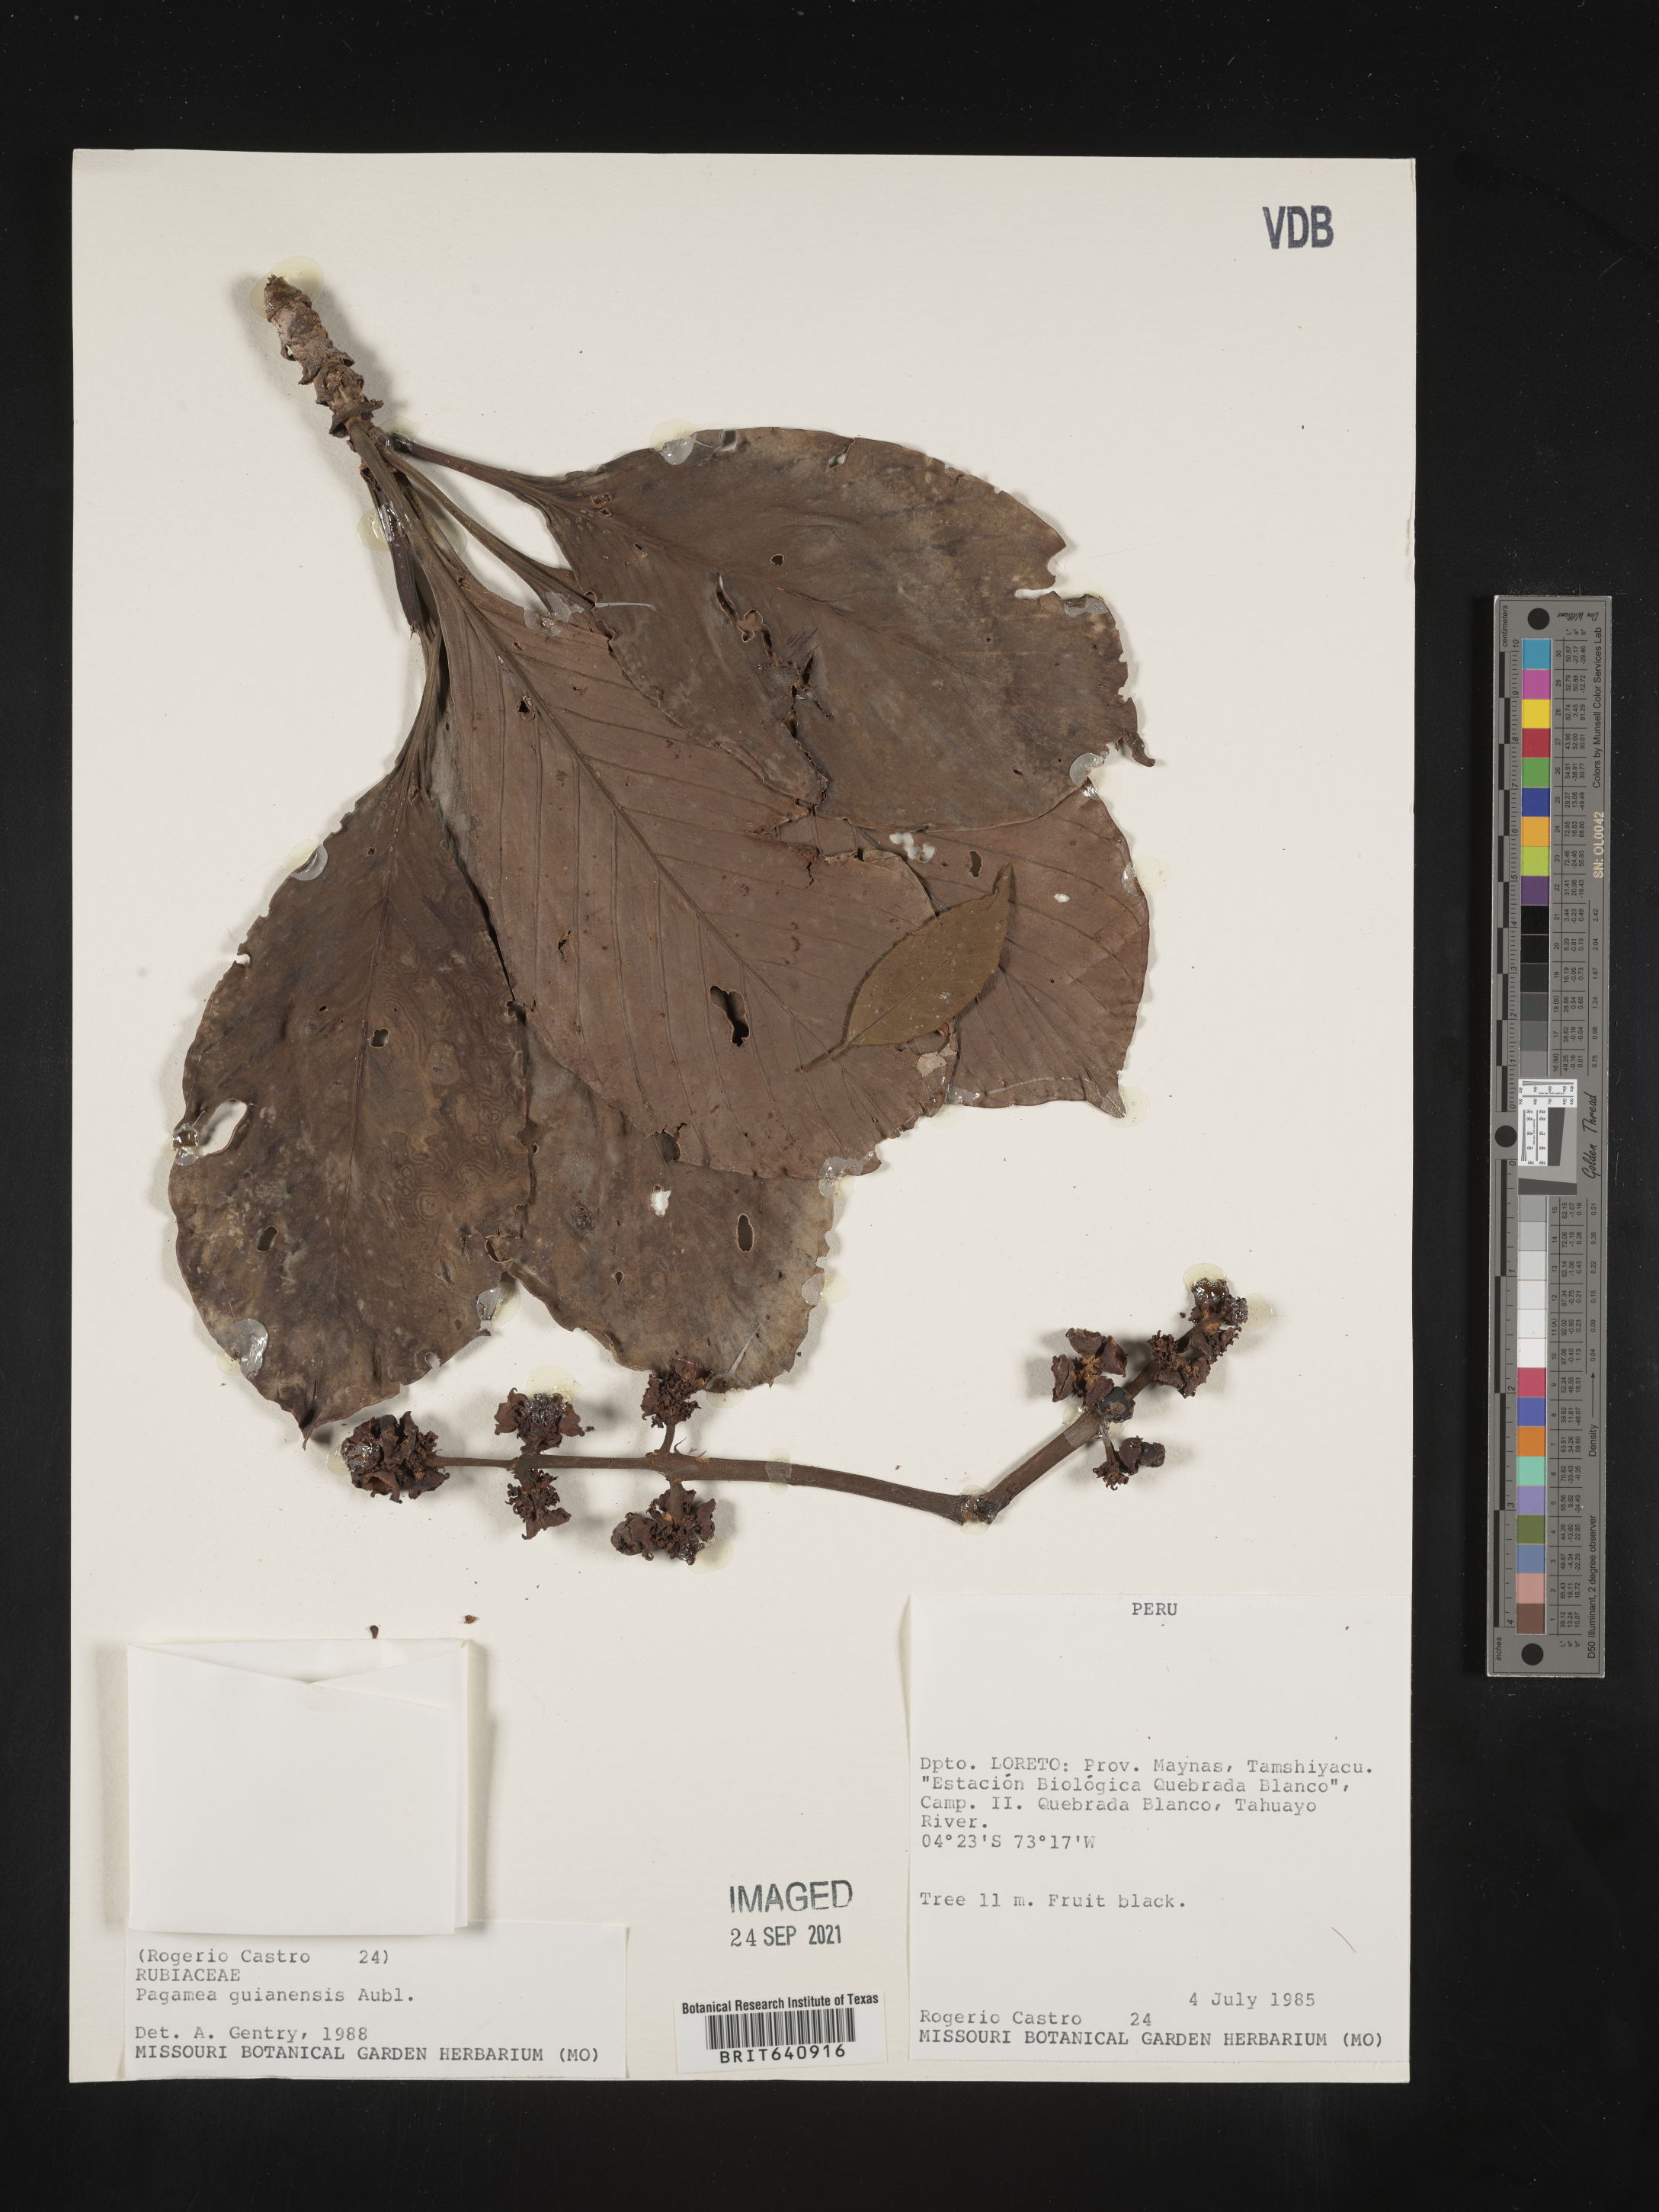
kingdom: Plantae
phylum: Tracheophyta
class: Magnoliopsida
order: Gentianales
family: Rubiaceae
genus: Pagamea
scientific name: Pagamea
